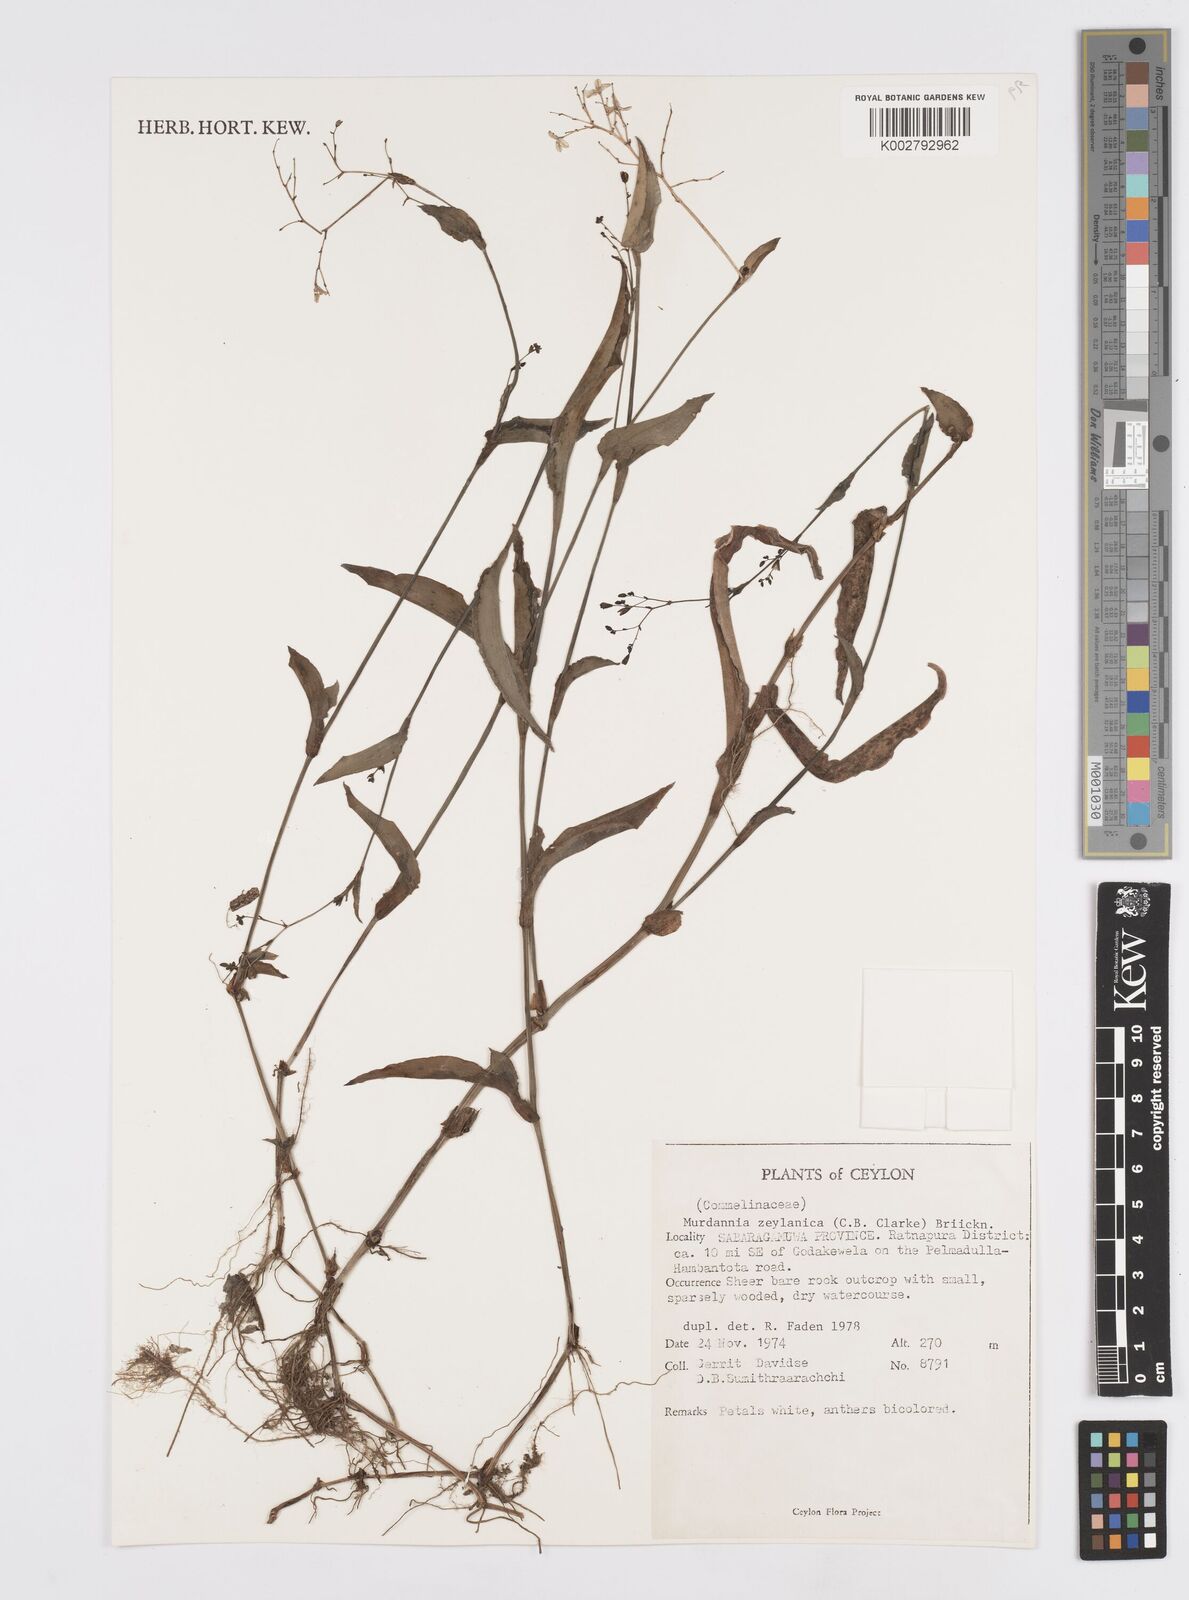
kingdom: Plantae
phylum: Tracheophyta
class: Liliopsida
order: Commelinales
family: Commelinaceae
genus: Murdannia
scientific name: Murdannia zeylanica
